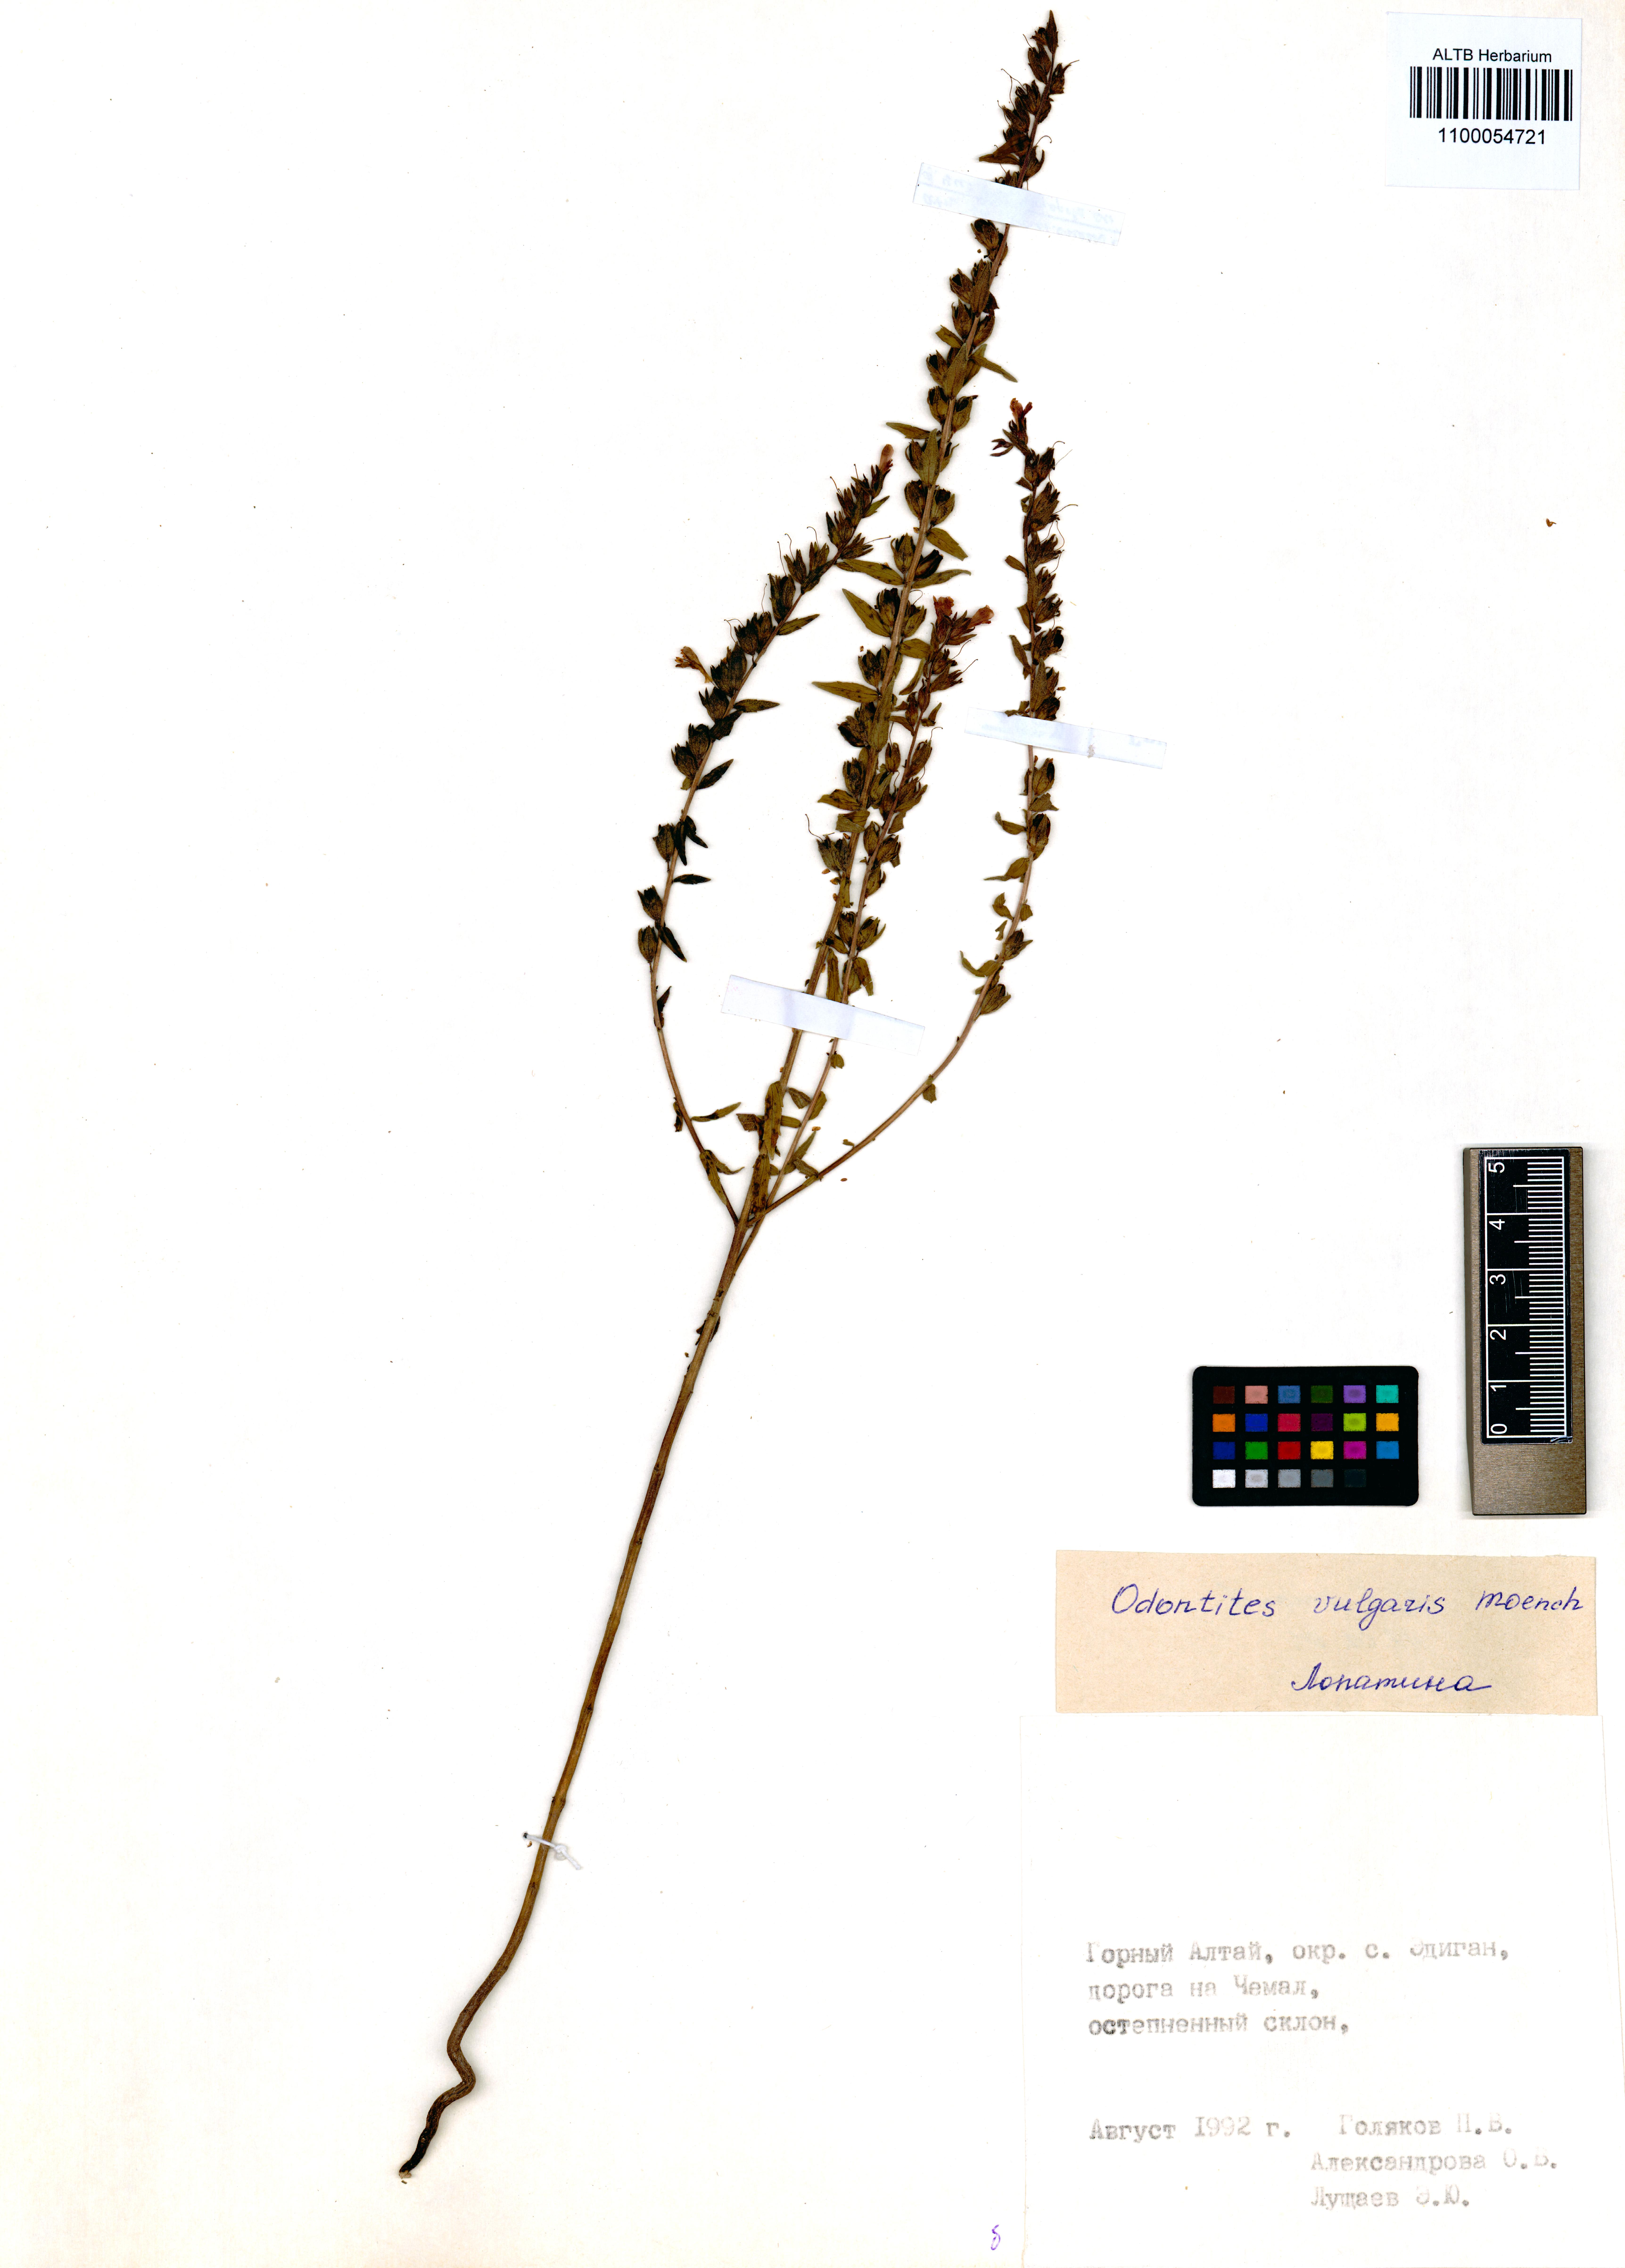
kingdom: Plantae
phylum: Tracheophyta
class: Magnoliopsida
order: Lamiales
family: Orobanchaceae
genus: Odontites
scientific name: Odontites vulgaris
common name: Broomrape
